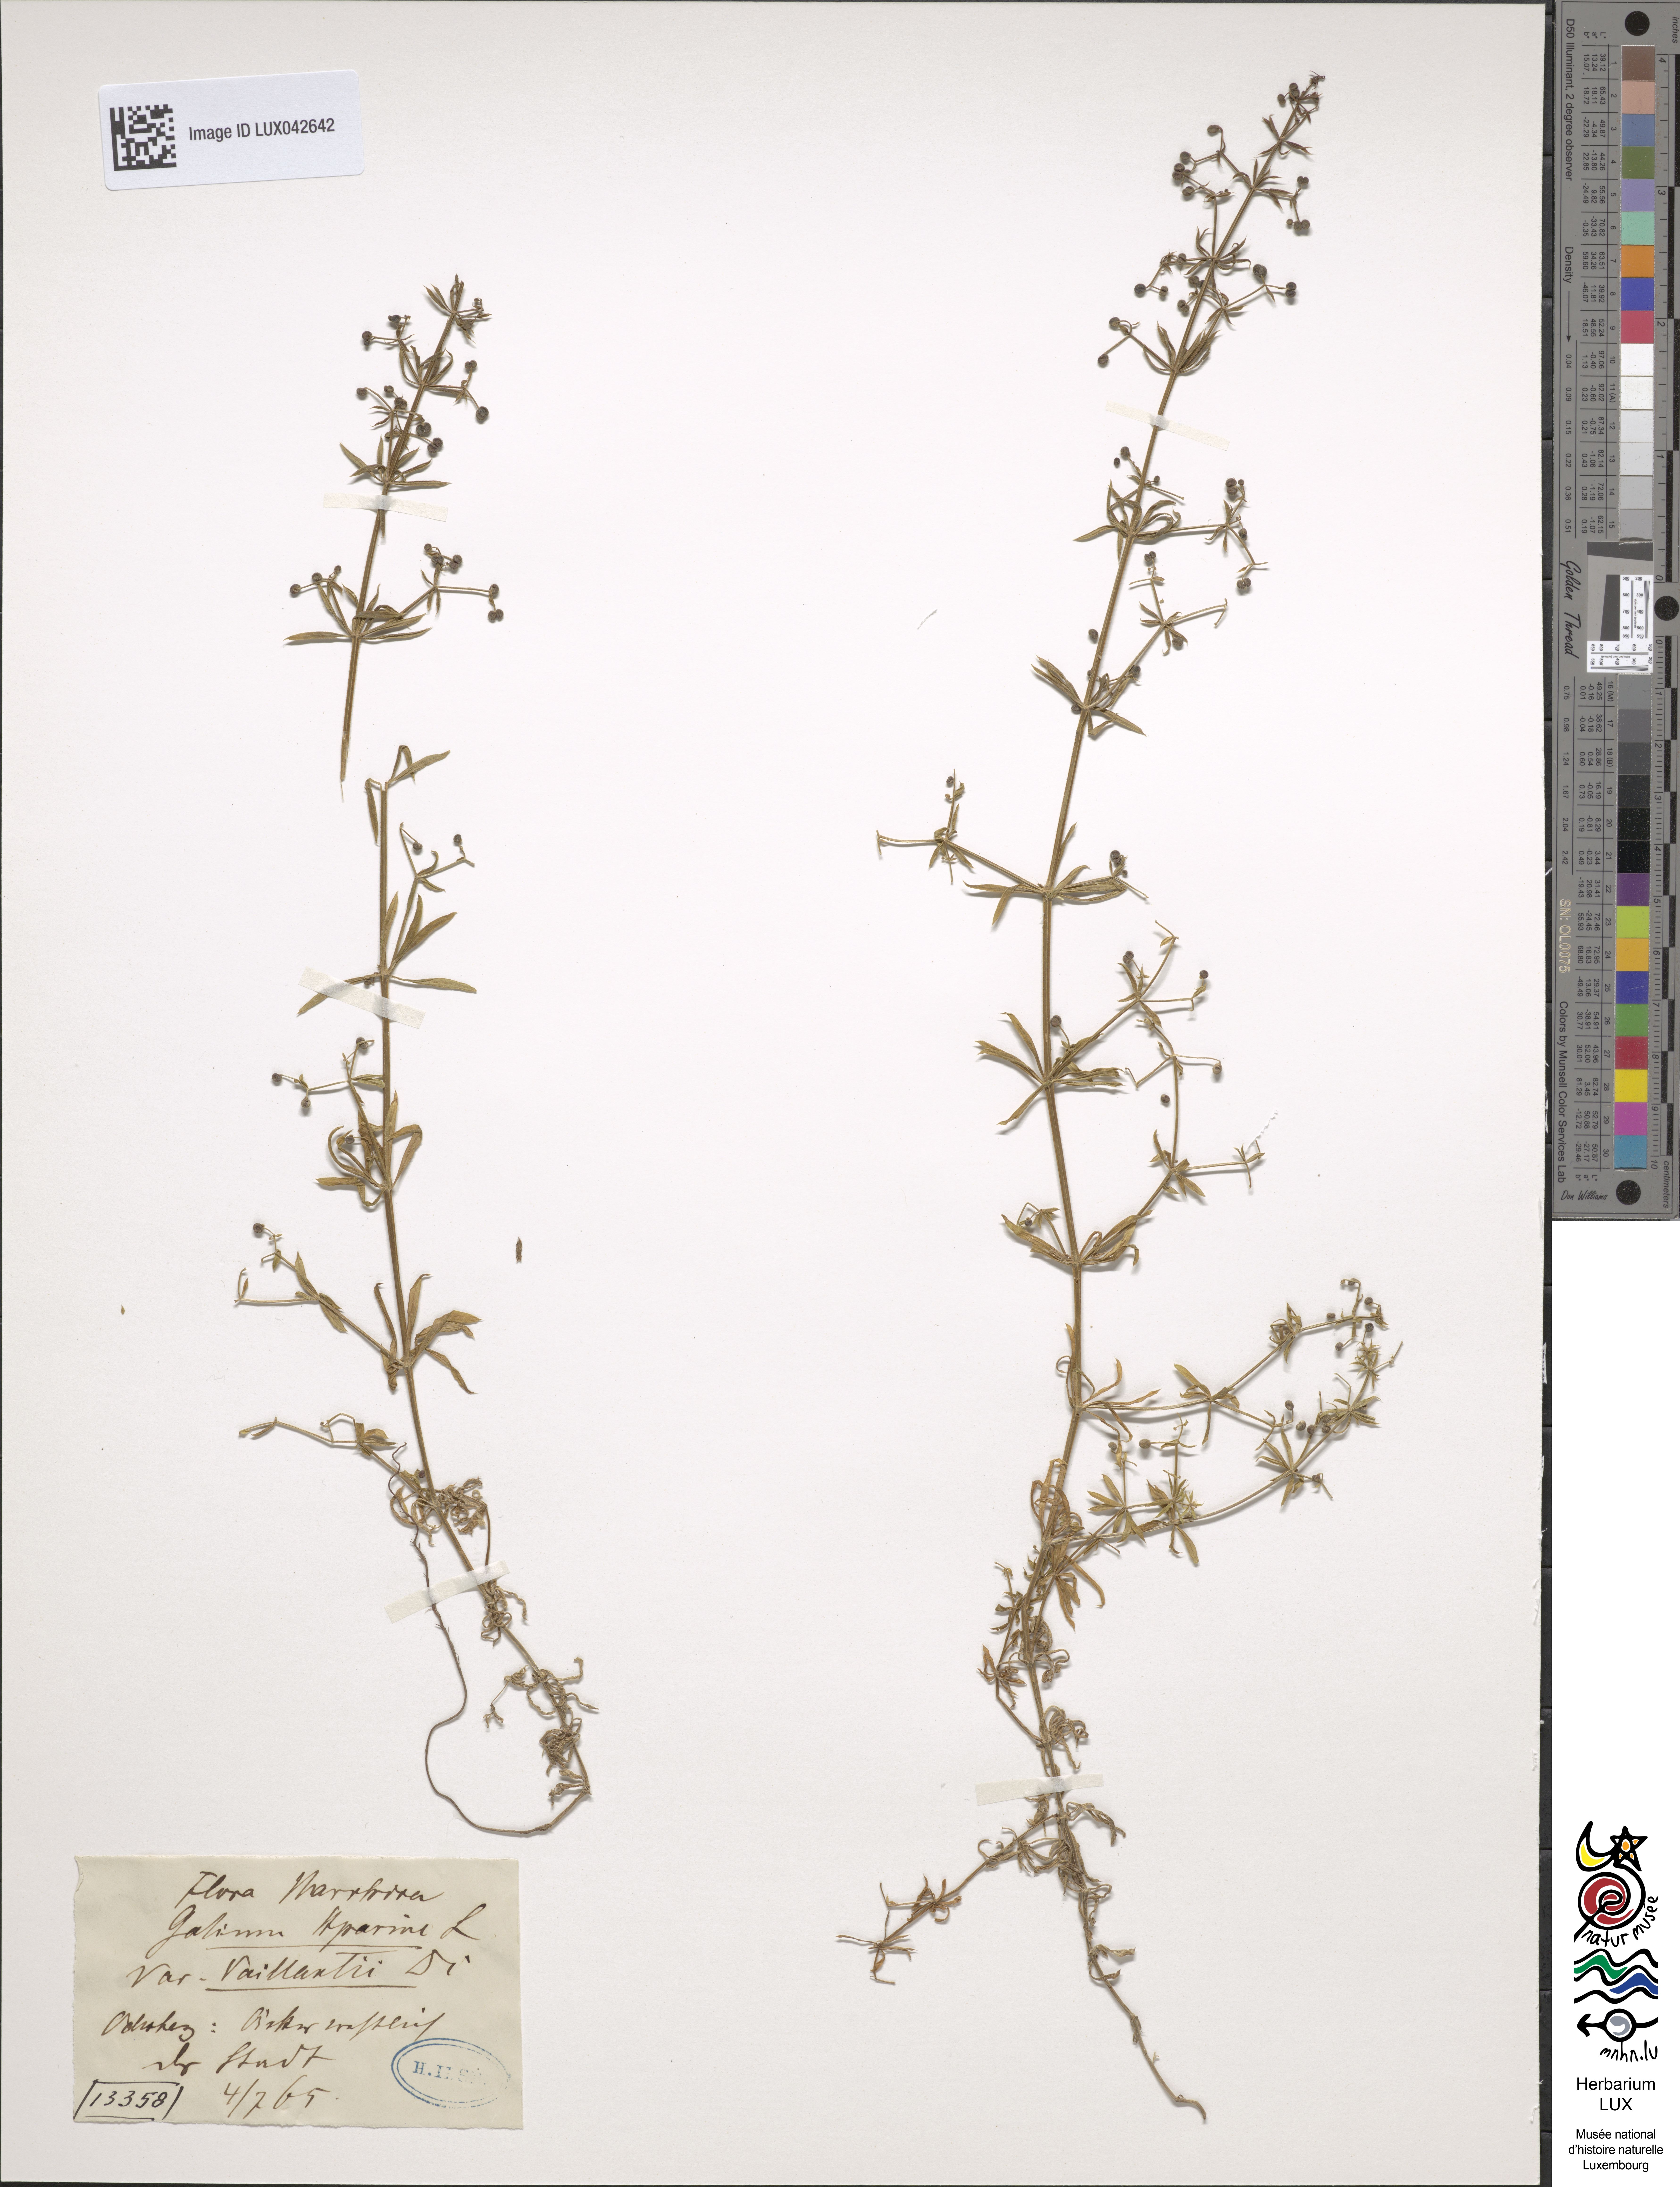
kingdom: Plantae
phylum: Tracheophyta
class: Magnoliopsida
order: Gentianales
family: Rubiaceae
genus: Galium
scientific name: Galium aparine
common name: Cleavers
